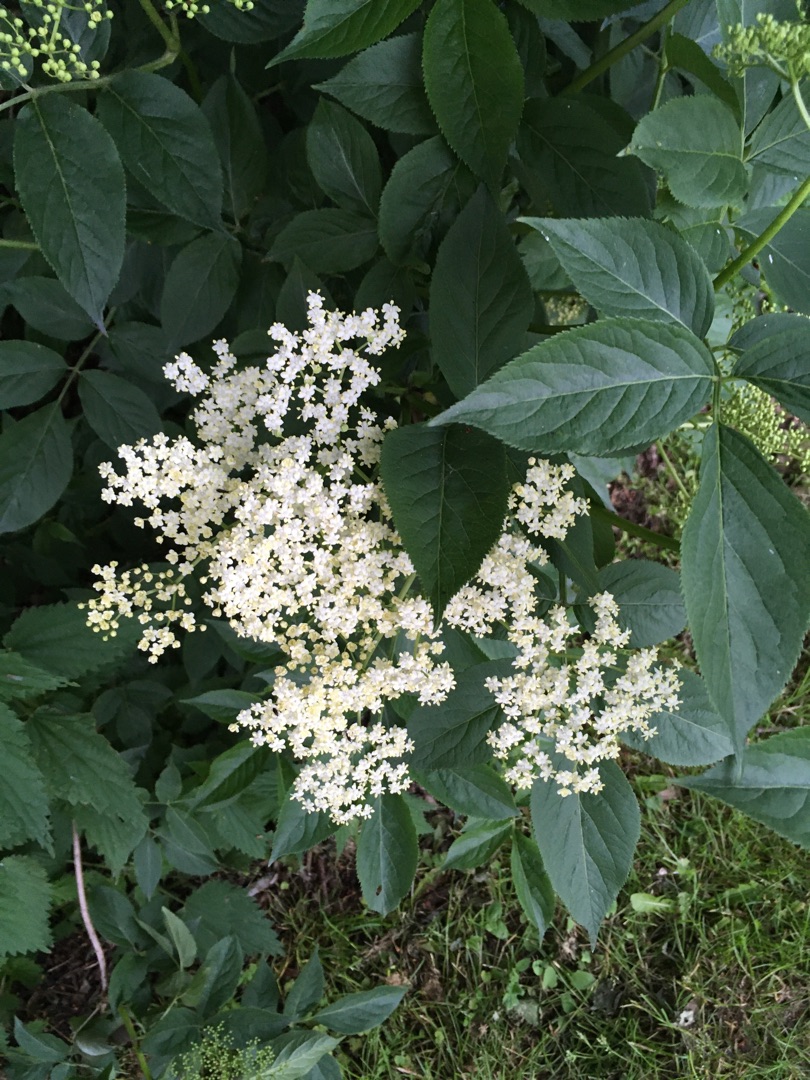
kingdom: Plantae
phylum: Tracheophyta
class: Magnoliopsida
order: Dipsacales
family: Viburnaceae
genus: Sambucus
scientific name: Sambucus nigra
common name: Almindelig hyld
